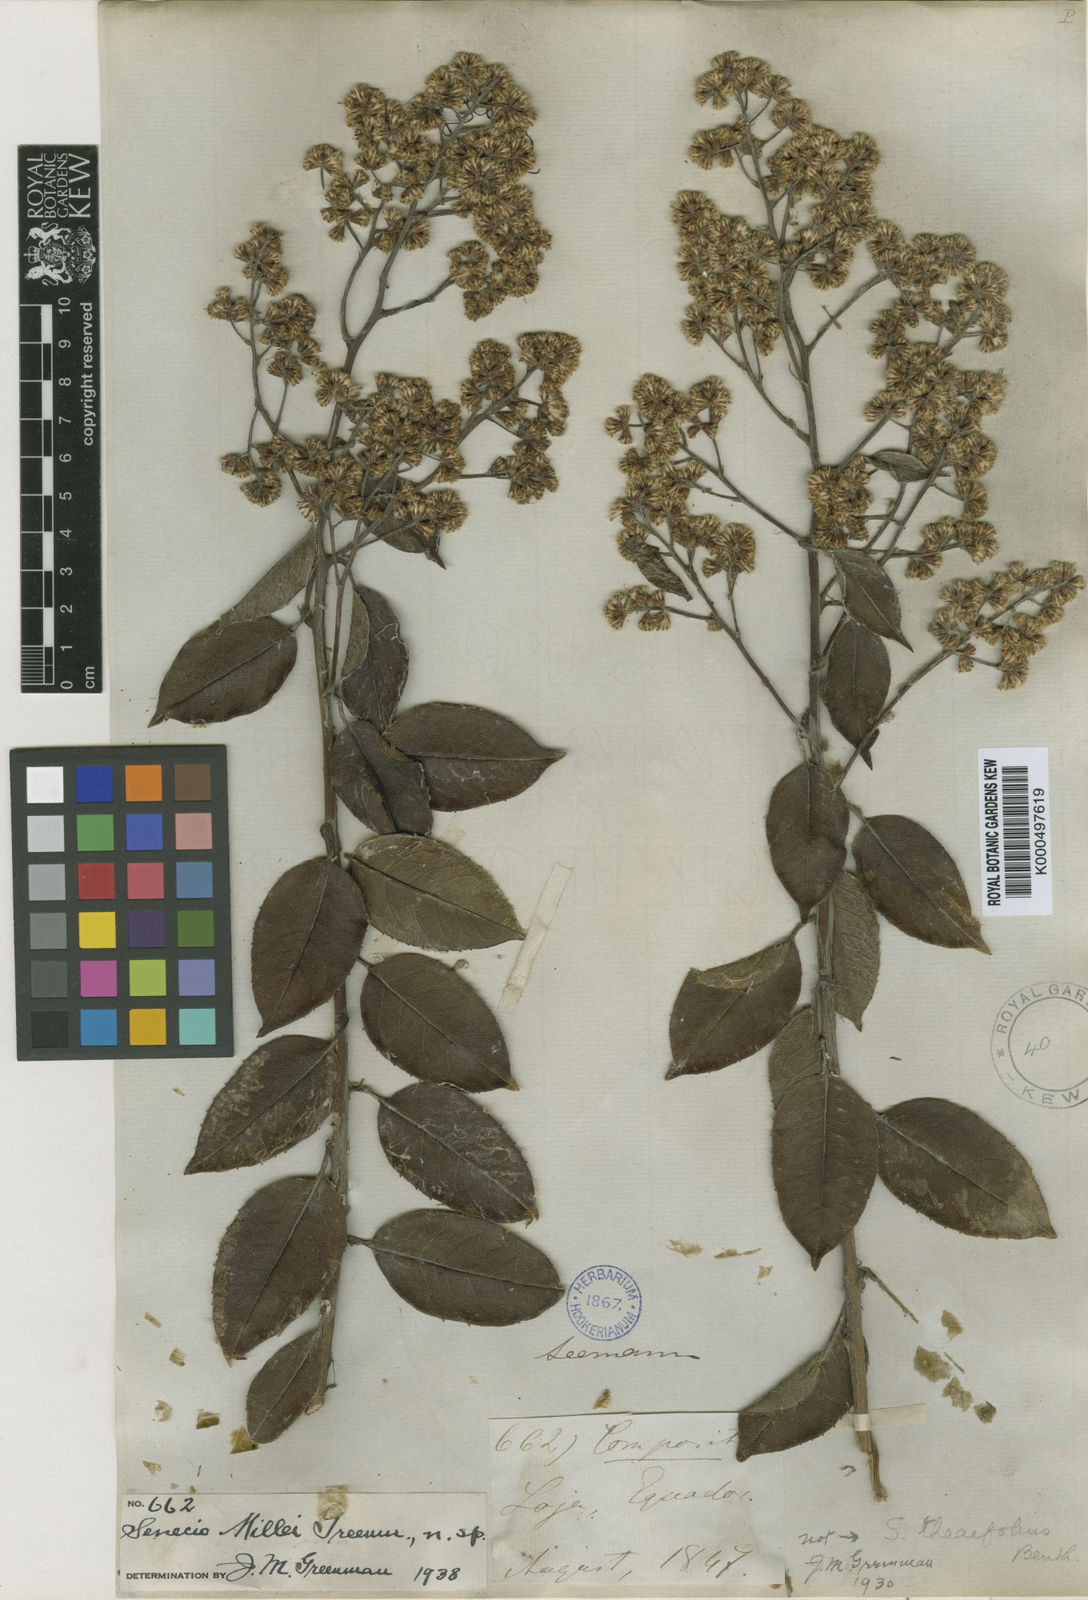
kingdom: Plantae
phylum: Tracheophyta
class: Magnoliopsida
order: Asterales
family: Asteraceae
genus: Pentacalia
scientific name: Pentacalia millei
